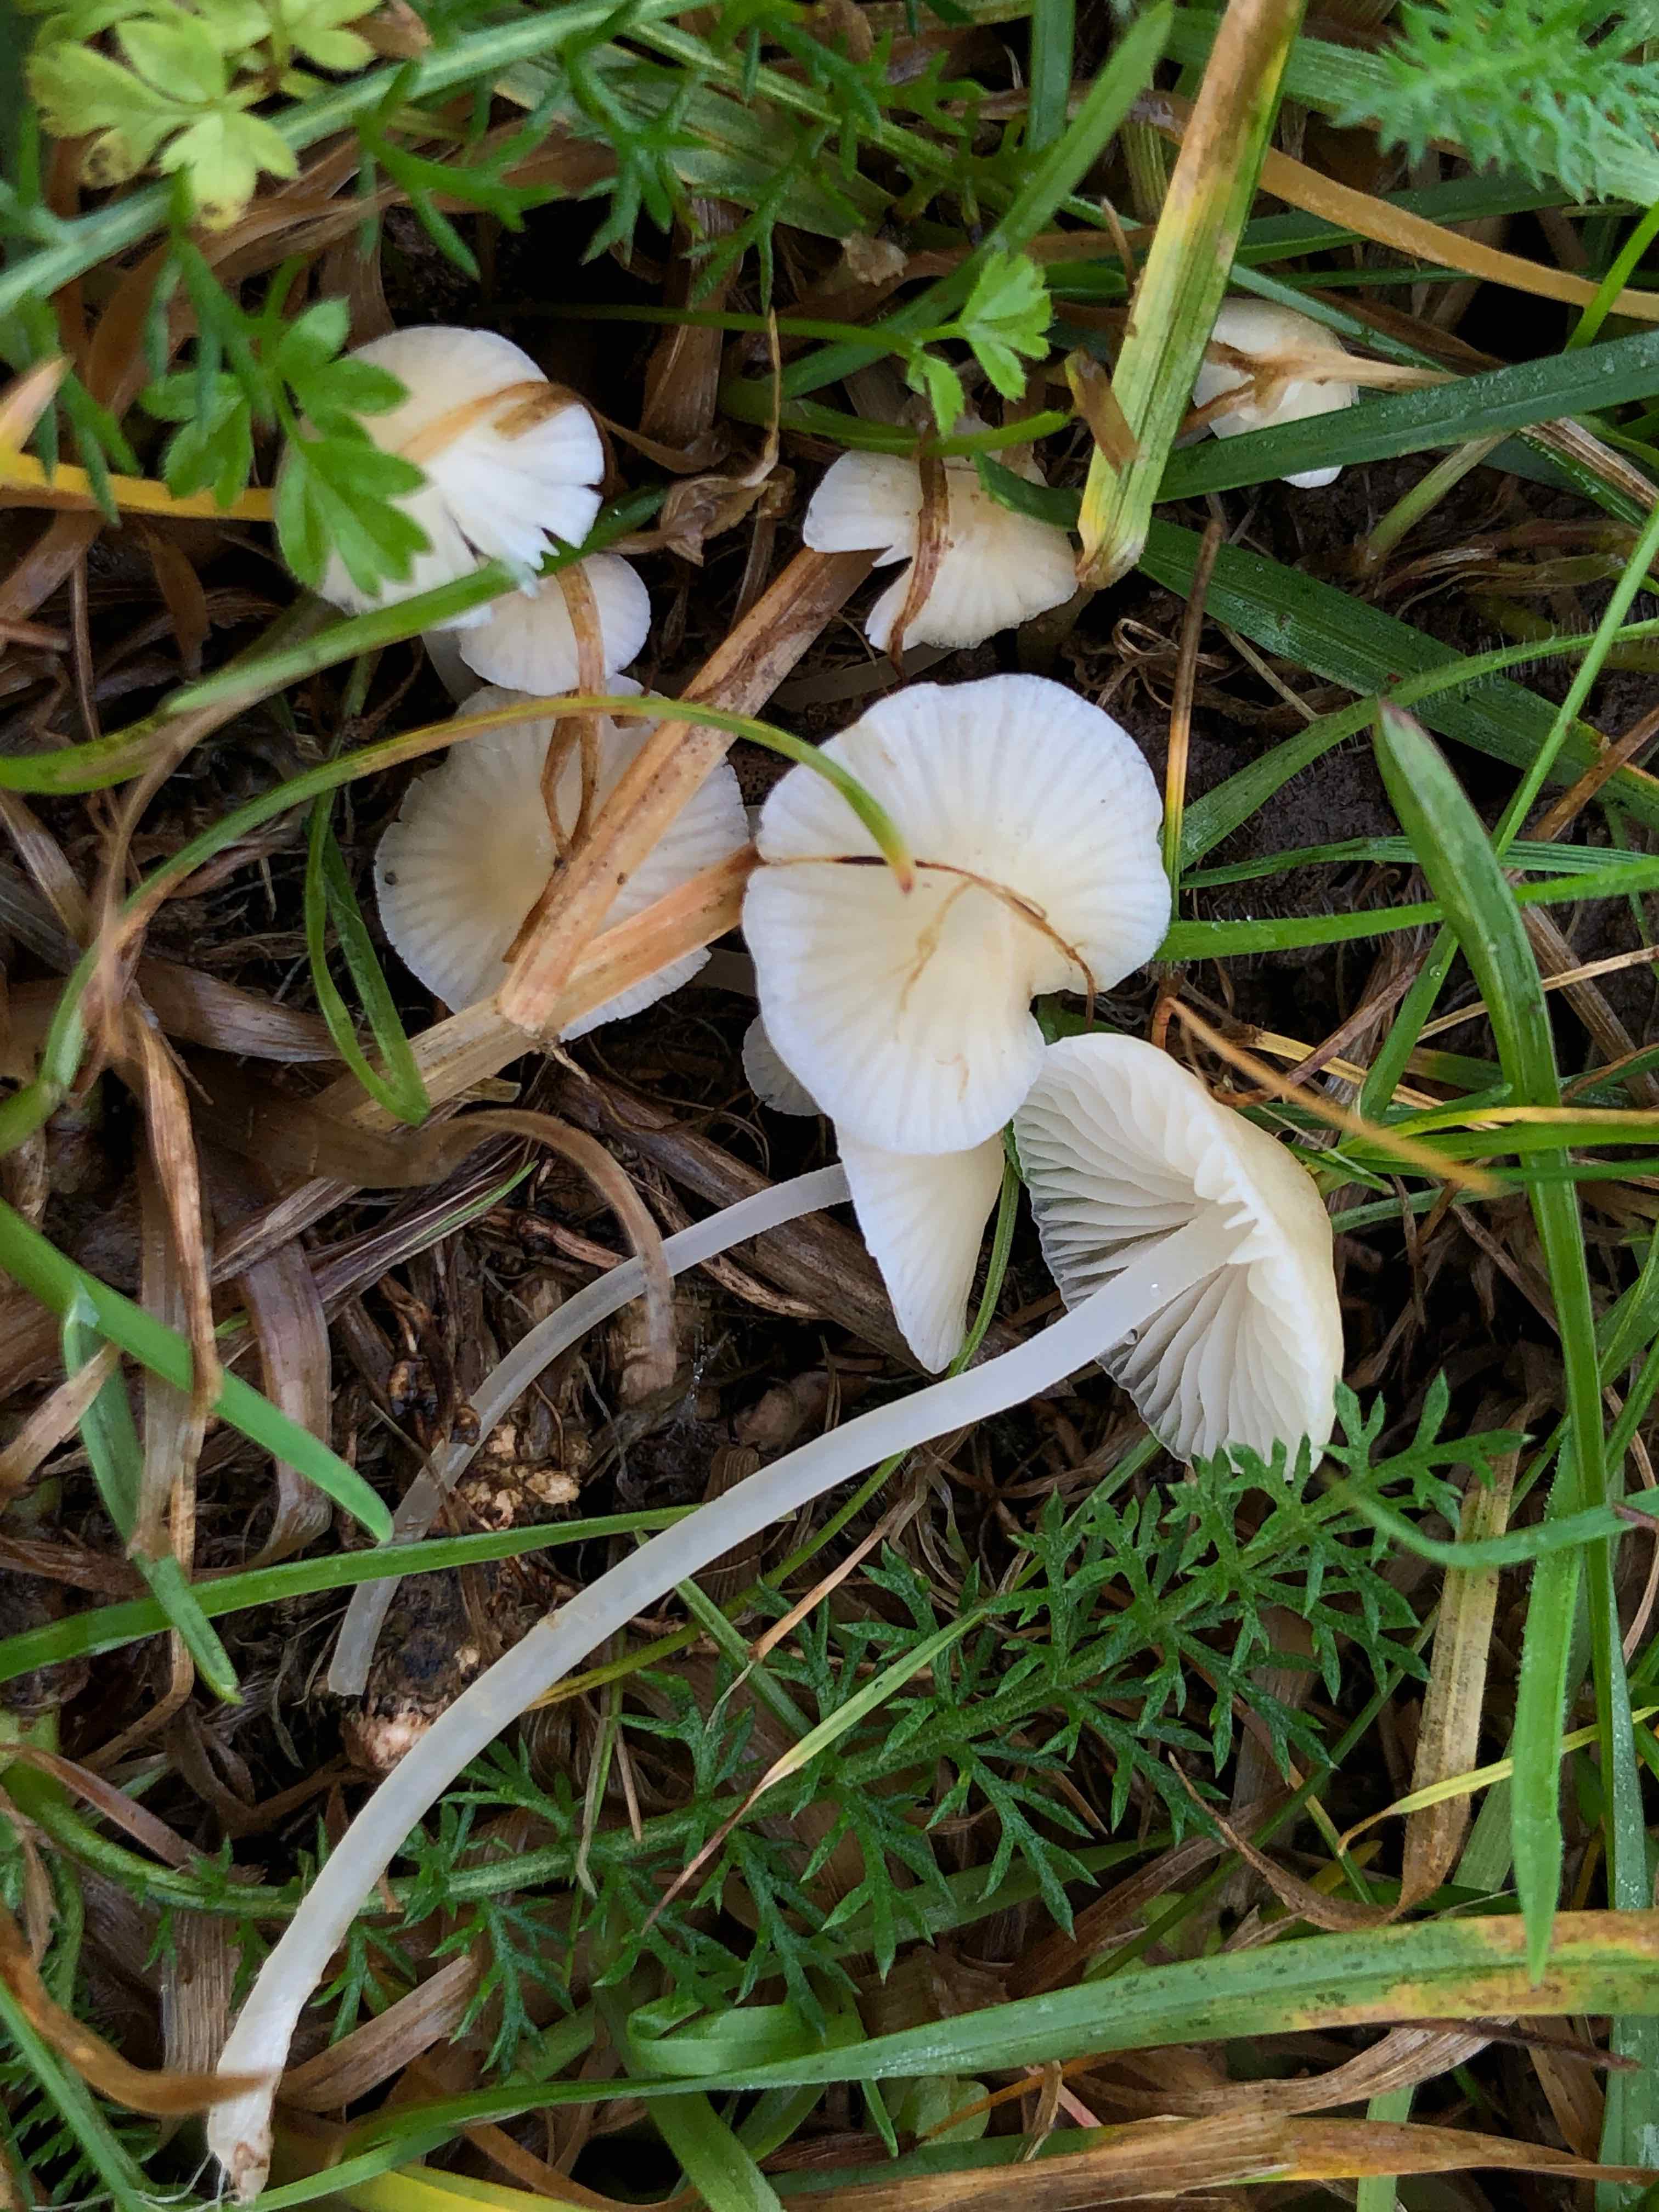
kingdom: Fungi
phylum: Basidiomycota
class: Agaricomycetes
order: Agaricales
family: Mycenaceae
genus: Atheniella
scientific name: Atheniella flavoalba
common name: gulhvid huesvamp
